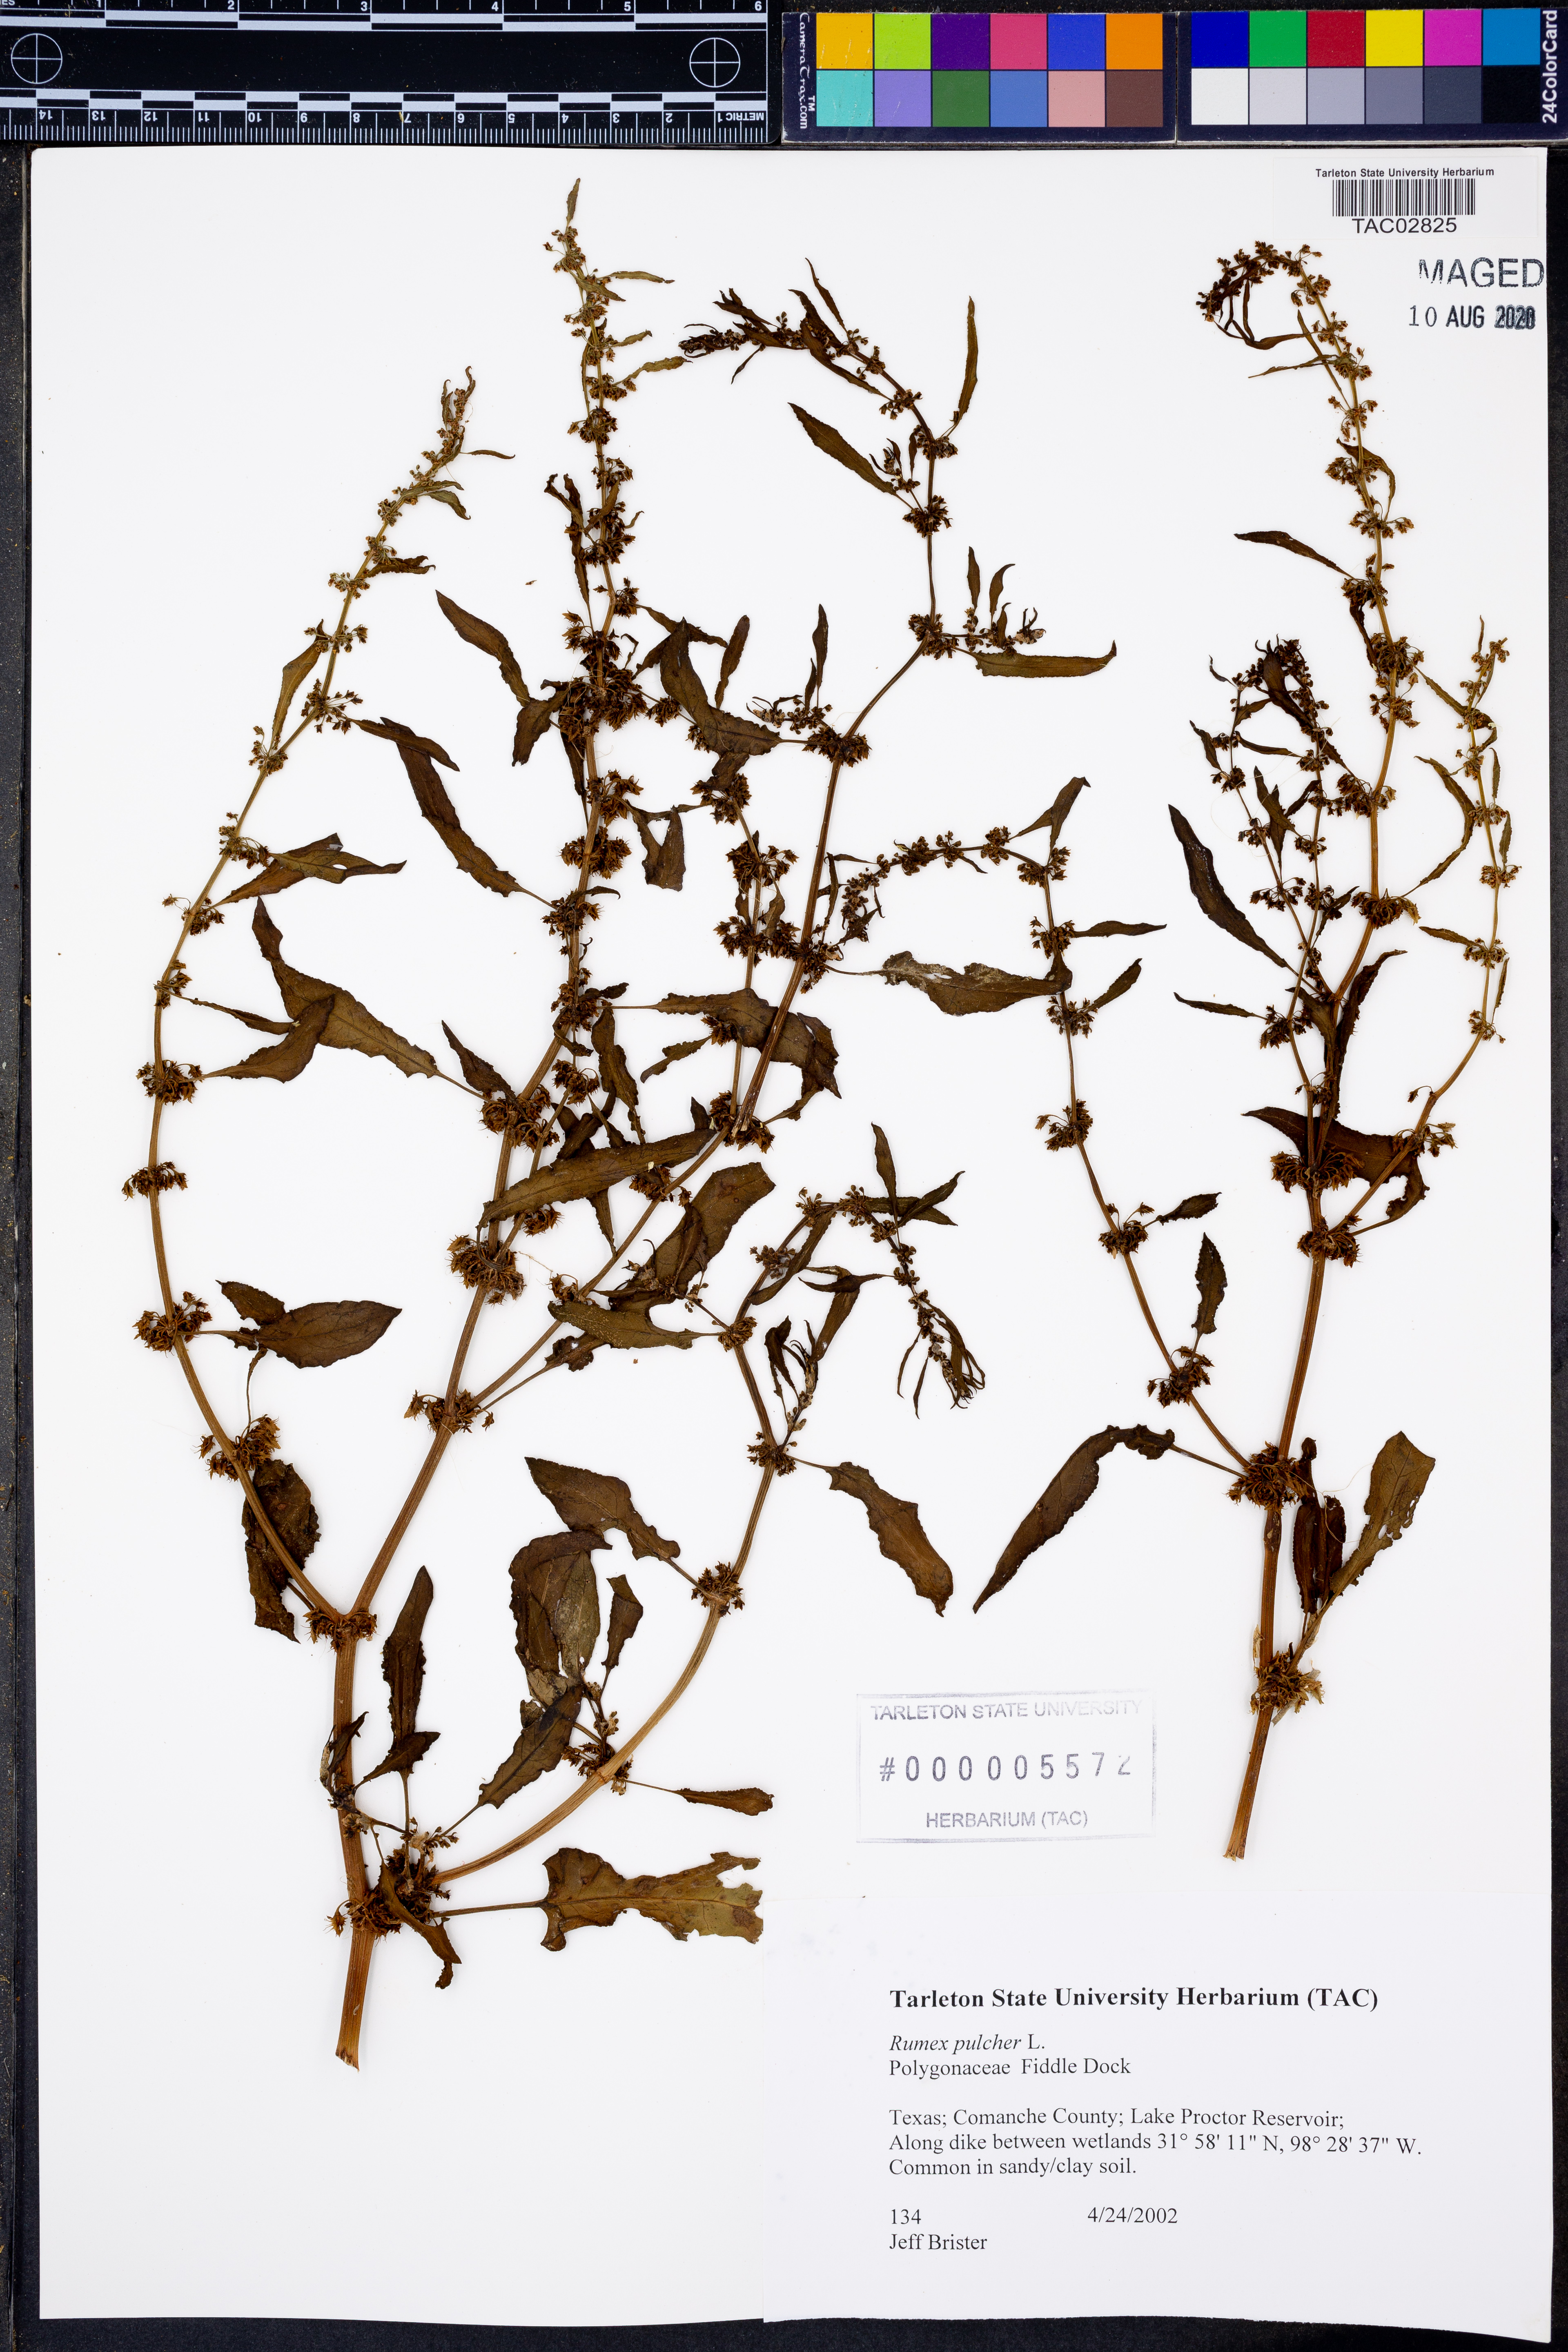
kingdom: Plantae
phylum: Tracheophyta
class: Magnoliopsida
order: Caryophyllales
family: Polygonaceae
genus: Rumex
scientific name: Rumex pulcher
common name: Fiddle dock
